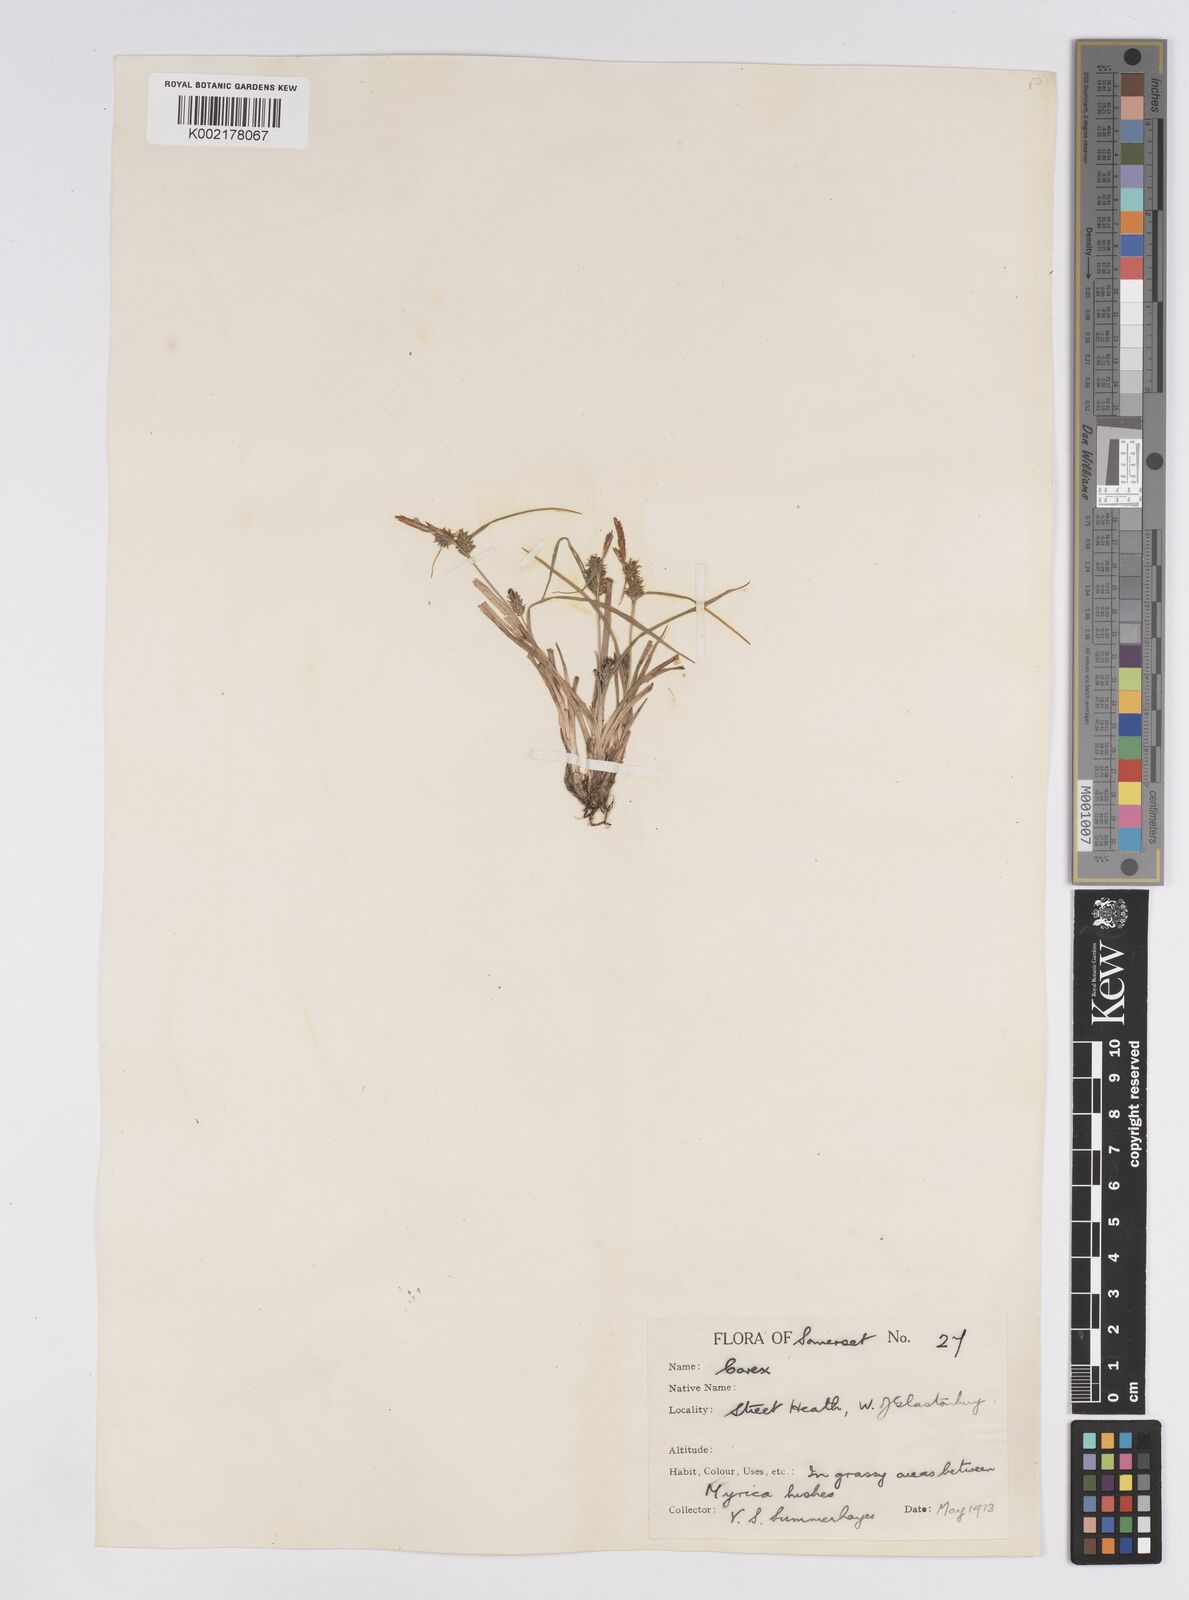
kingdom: Plantae
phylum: Tracheophyta
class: Liliopsida
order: Poales
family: Cyperaceae
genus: Carex
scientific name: Carex demissa
